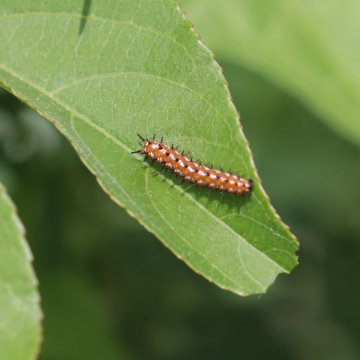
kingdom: Animalia
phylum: Arthropoda
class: Insecta
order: Lepidoptera
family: Nymphalidae
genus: Euptoieta
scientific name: Euptoieta claudia
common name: Variegated Fritillary
